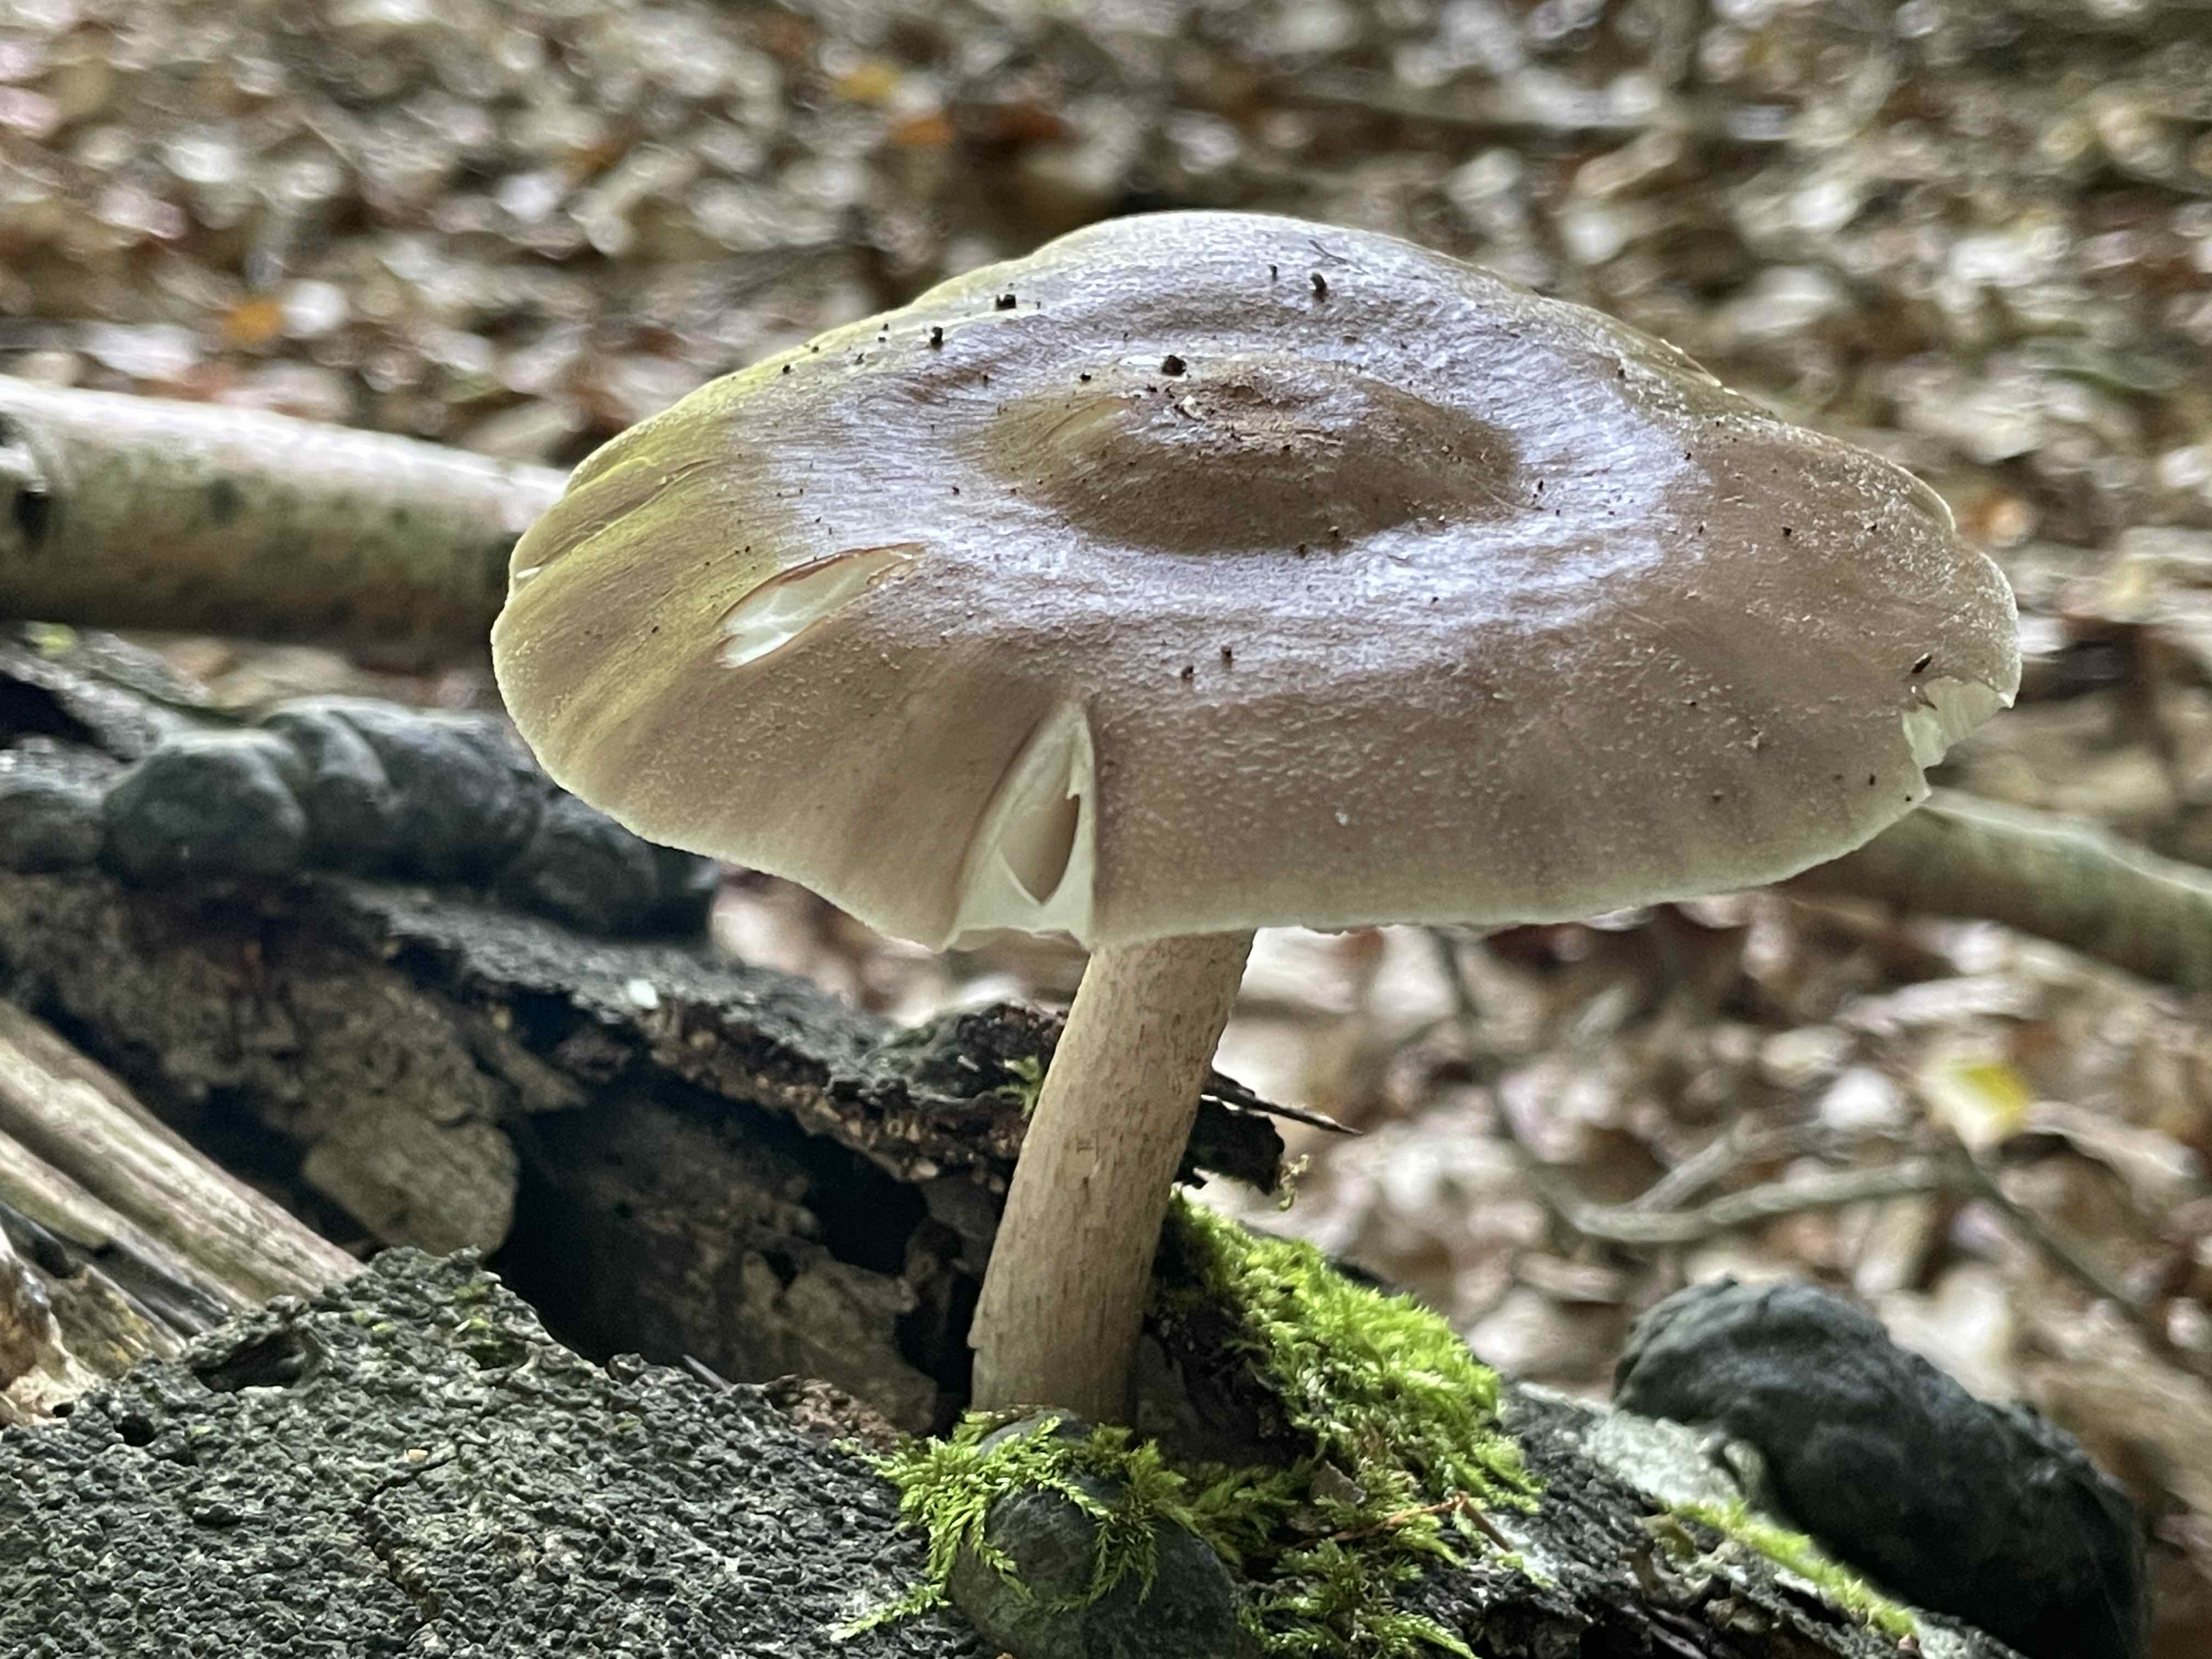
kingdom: Fungi
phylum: Basidiomycota
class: Agaricomycetes
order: Agaricales
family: Pluteaceae
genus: Pluteus
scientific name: Pluteus cervinus
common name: sodfarvet skærmhat
